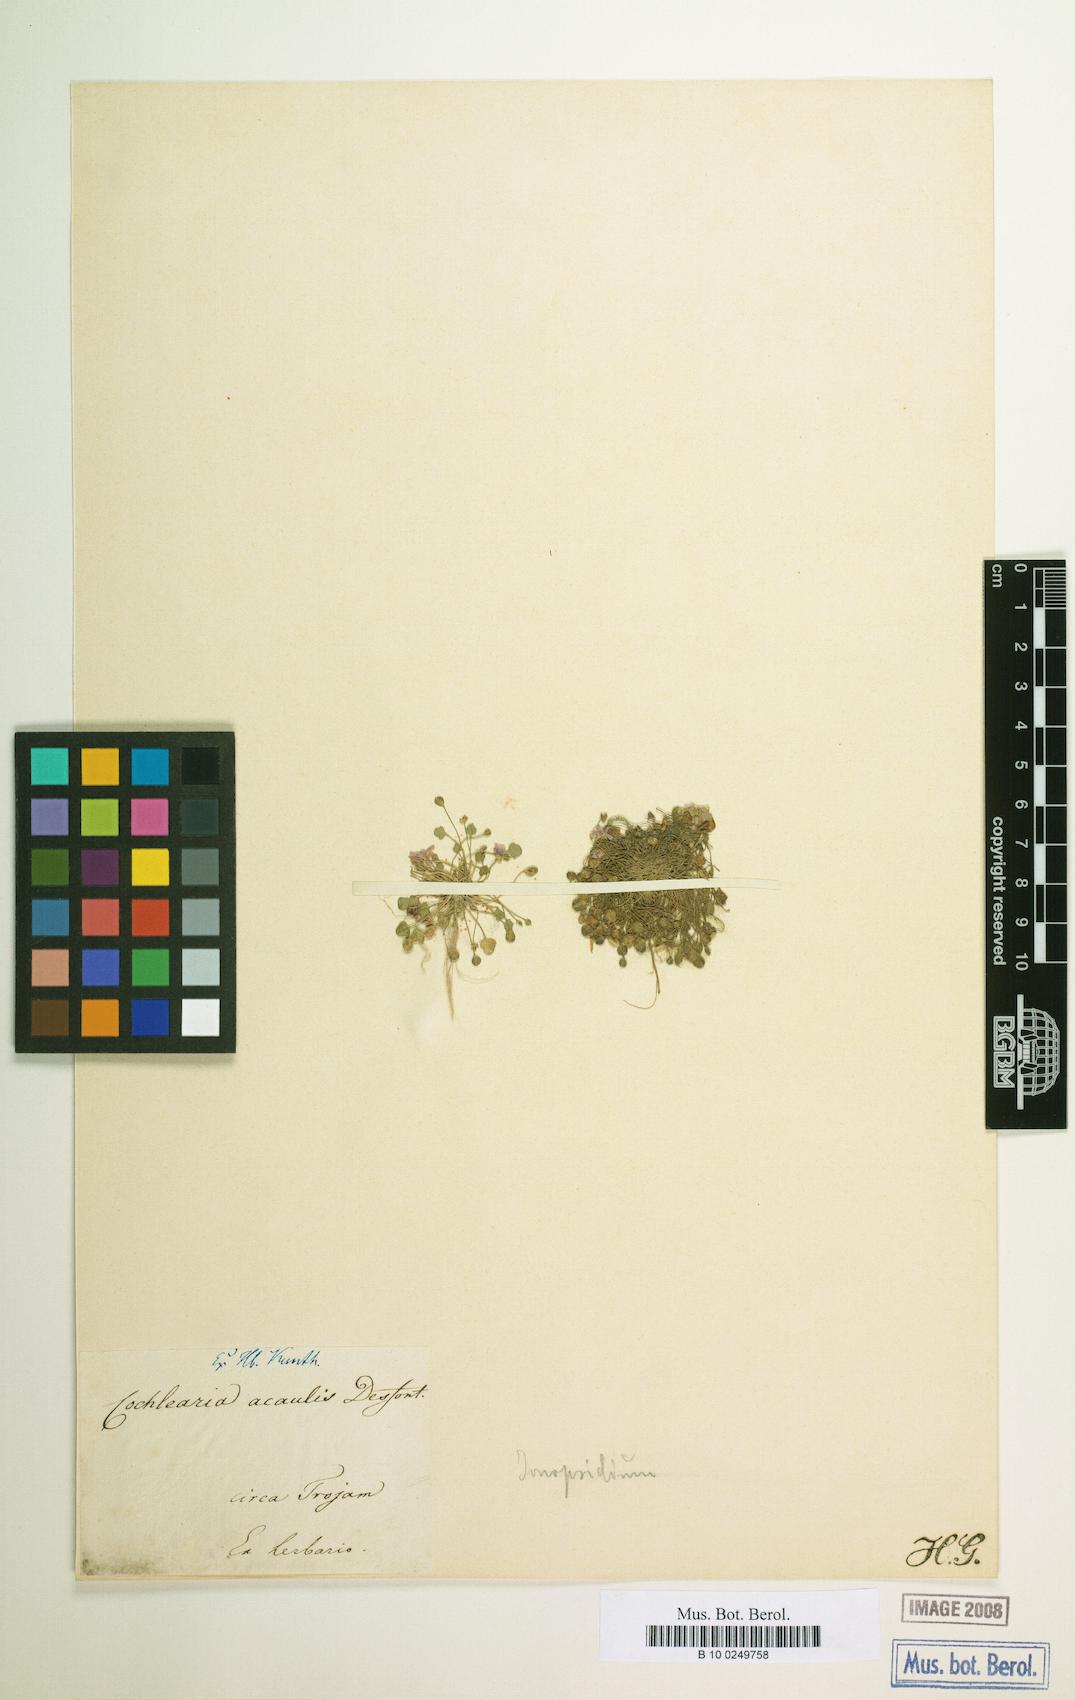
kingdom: Plantae
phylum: Tracheophyta
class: Magnoliopsida
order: Brassicales
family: Brassicaceae
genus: Ionopsidium
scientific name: Ionopsidium acaule
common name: False diamondflower
